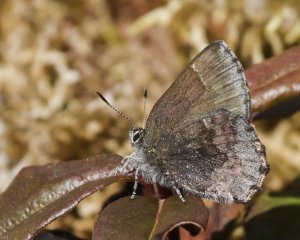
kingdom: Animalia
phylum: Arthropoda
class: Insecta
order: Lepidoptera
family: Lycaenidae
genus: Callophrys
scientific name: Callophrys polios
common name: Hoary Elfin
